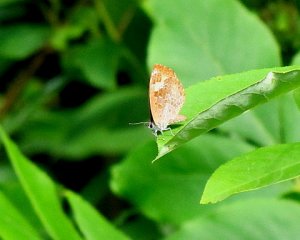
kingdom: Animalia
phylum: Arthropoda
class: Insecta
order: Lepidoptera
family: Lycaenidae
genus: Feniseca
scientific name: Feniseca tarquinius
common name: Harvester
